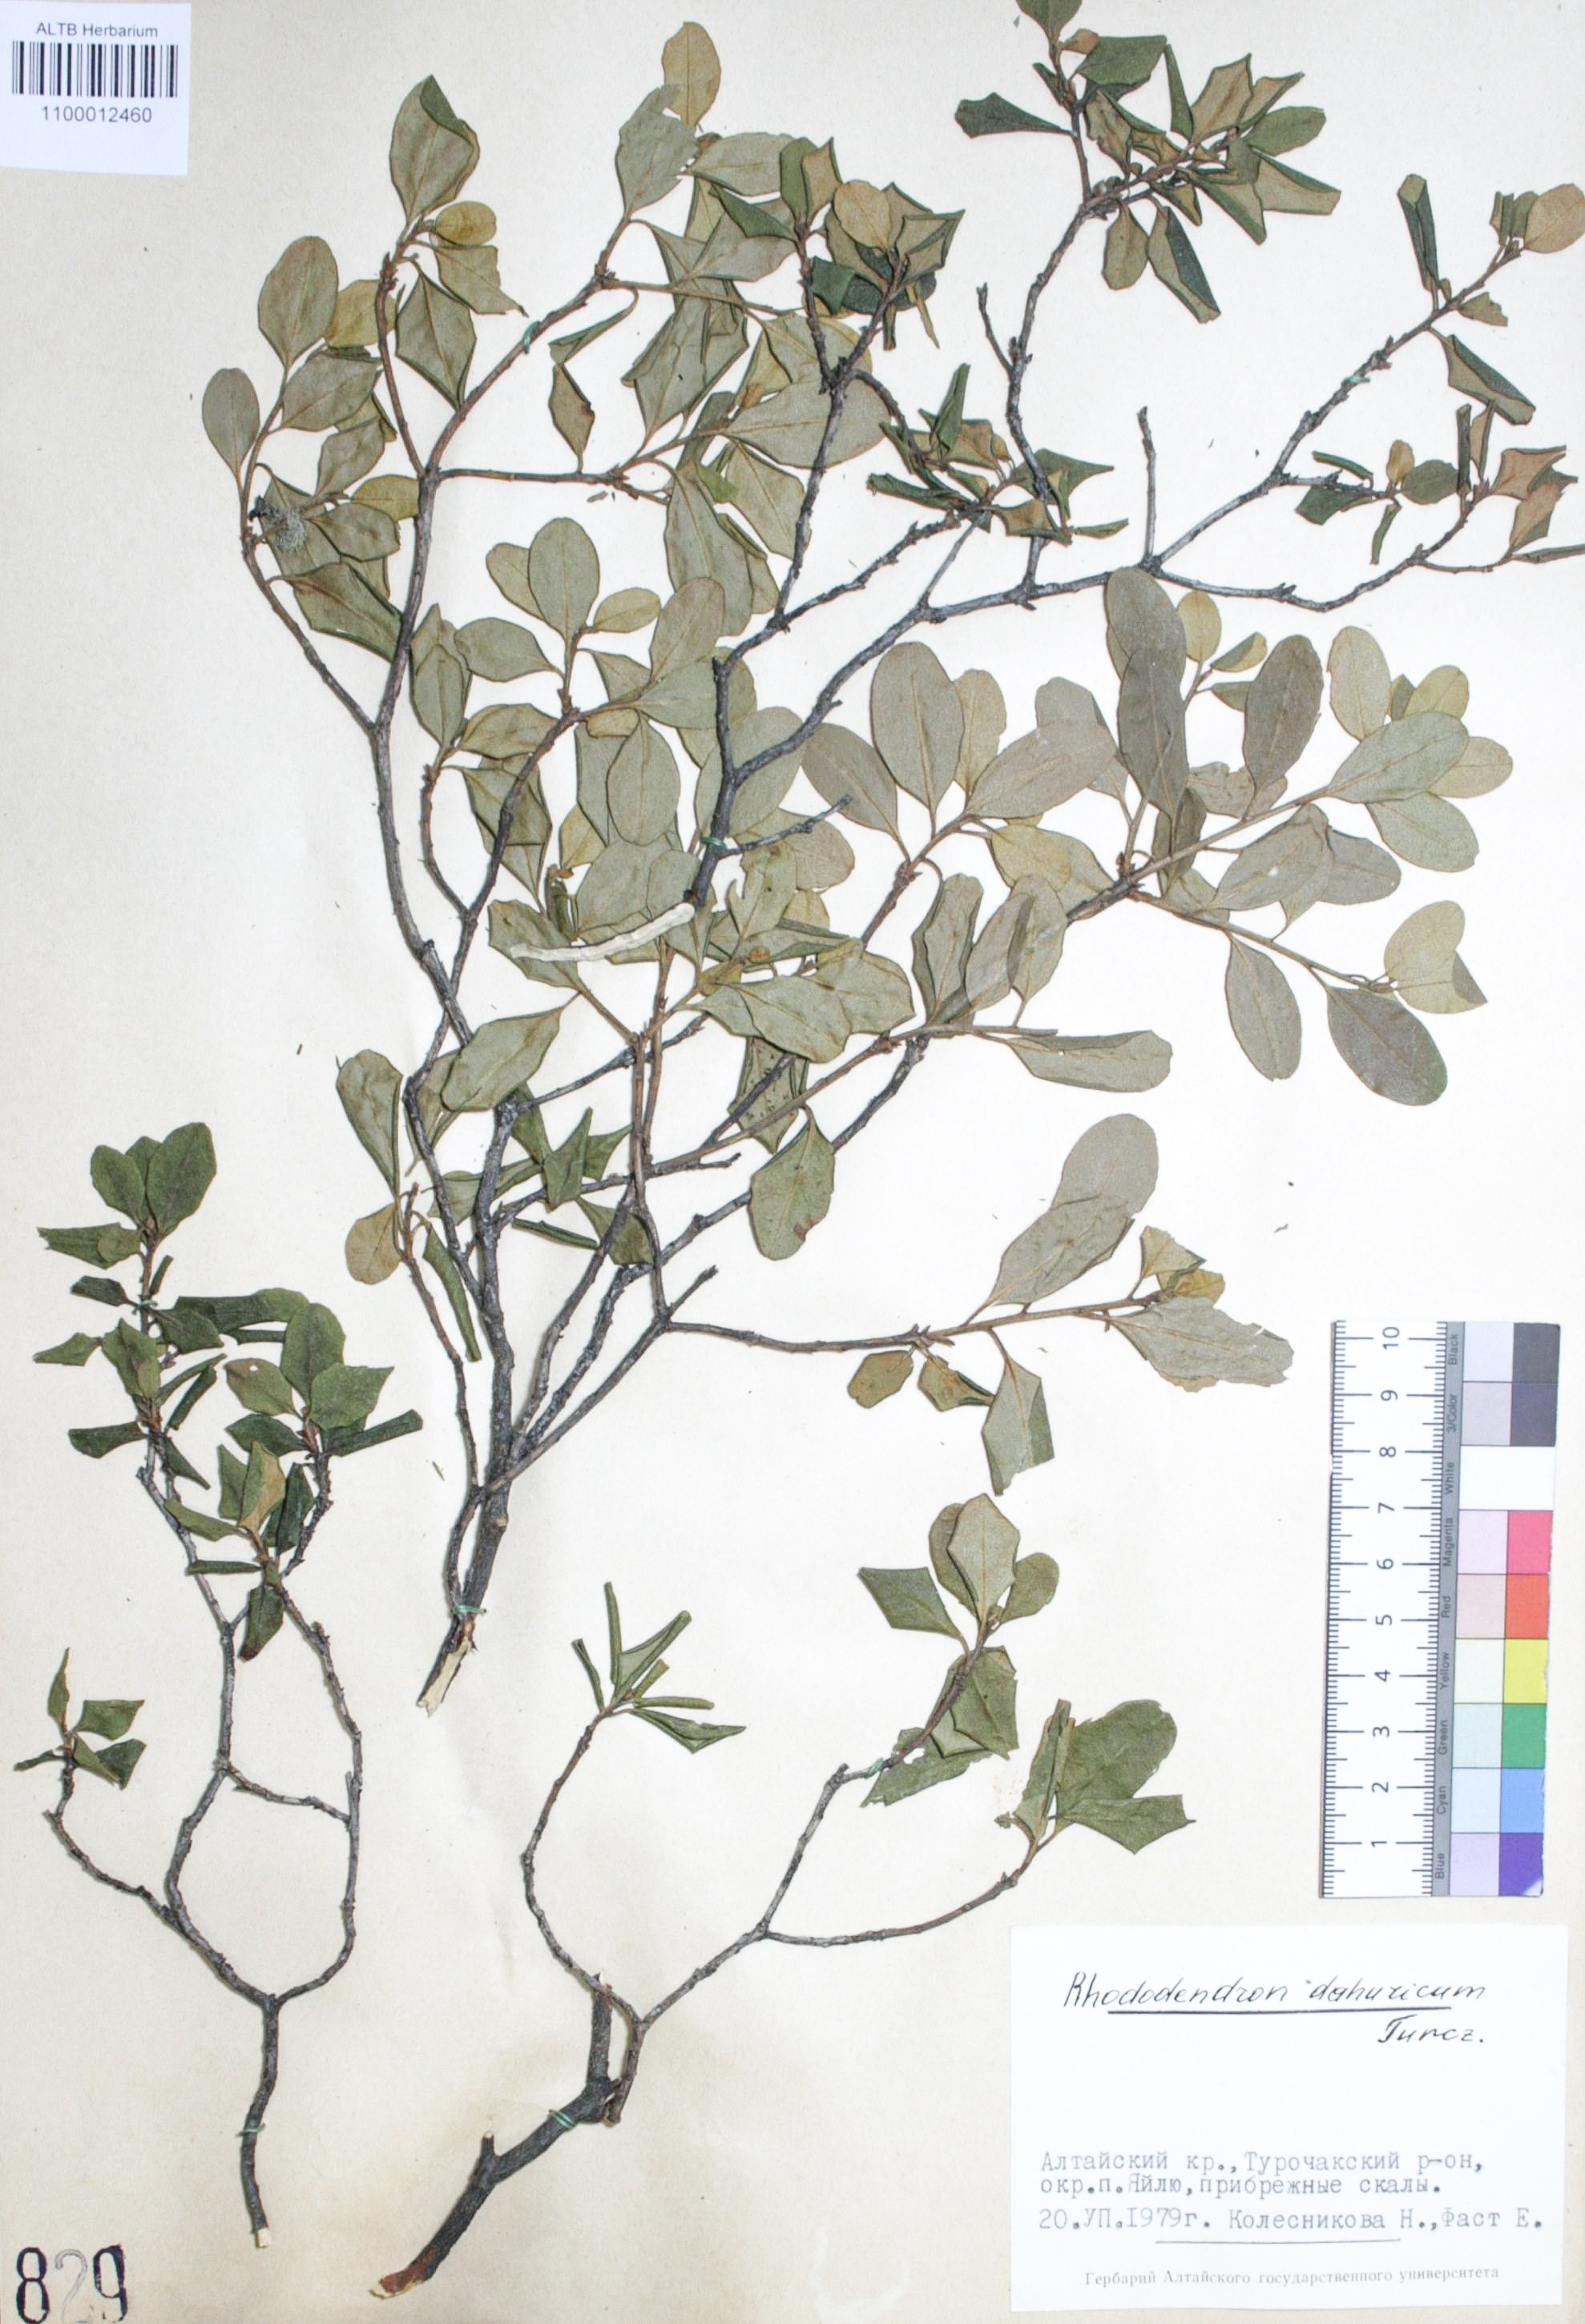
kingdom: Plantae
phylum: Tracheophyta
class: Magnoliopsida
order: Ericales
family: Ericaceae
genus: Rhododendron
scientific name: Rhododendron dahuricum
